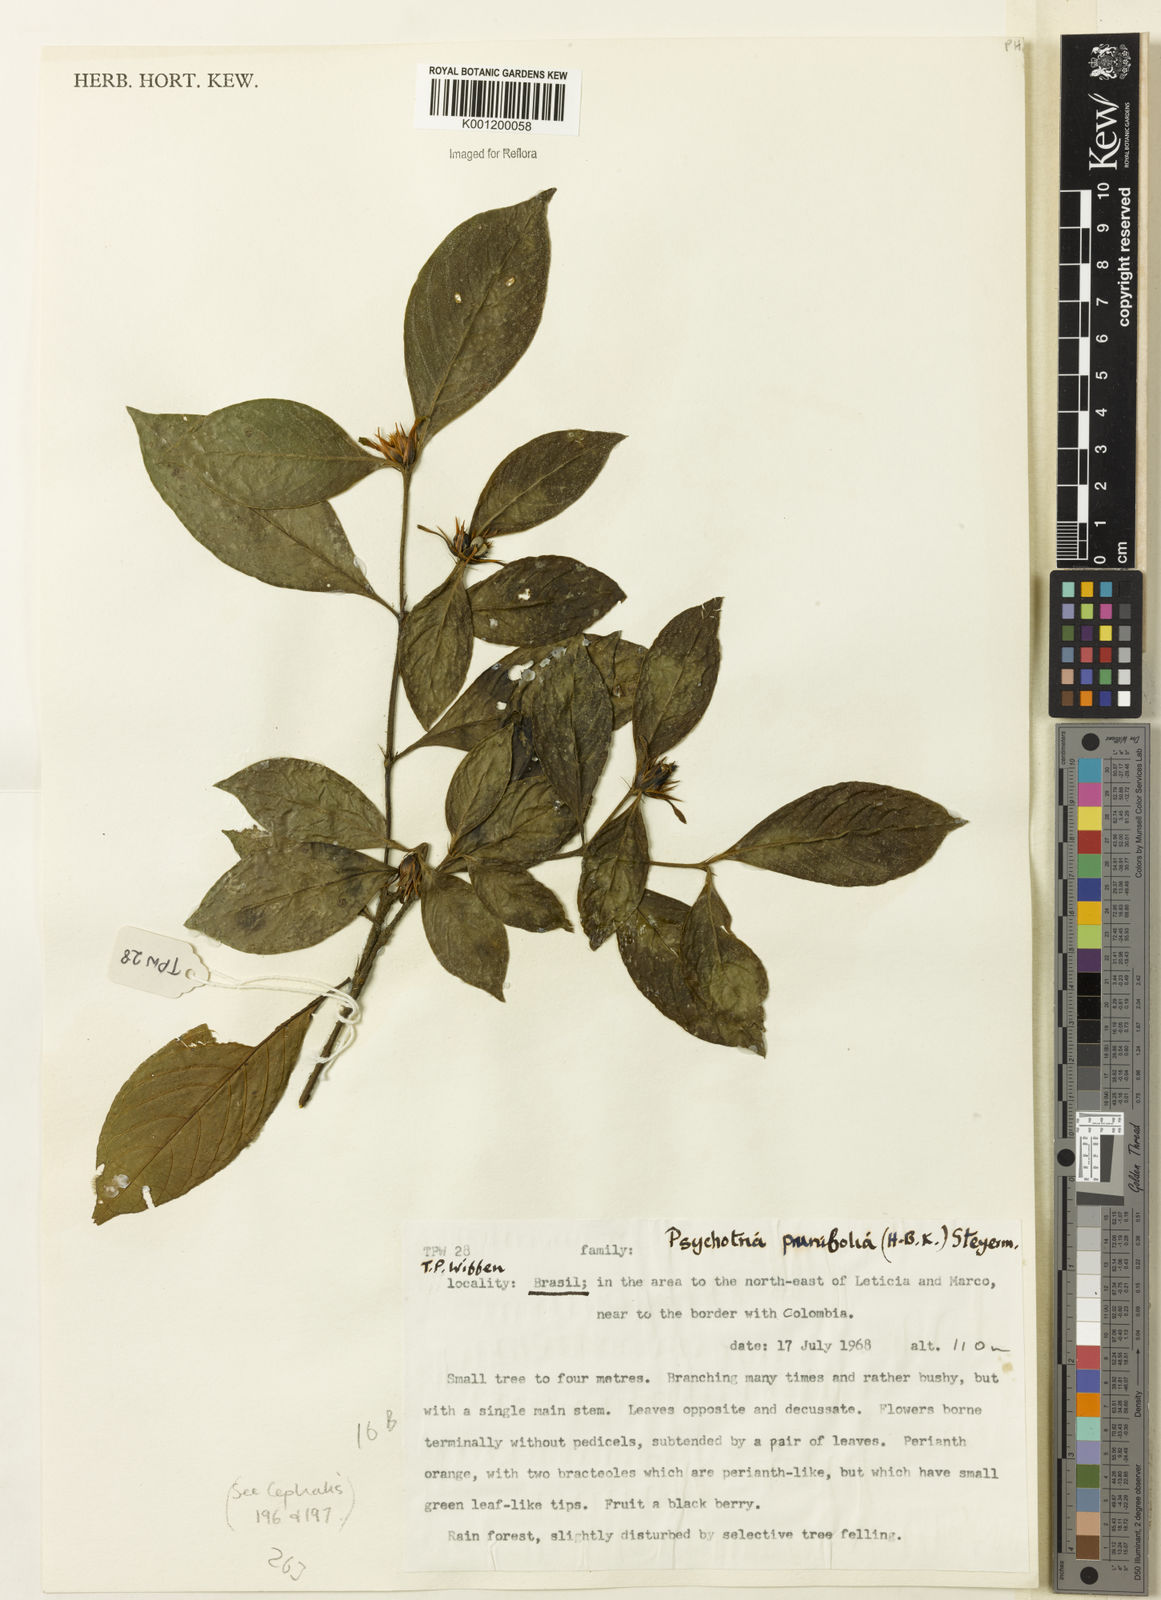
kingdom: Plantae
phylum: Tracheophyta
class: Magnoliopsida
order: Gentianales
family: Rubiaceae
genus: Palicourea
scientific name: Palicourea prunifolia
